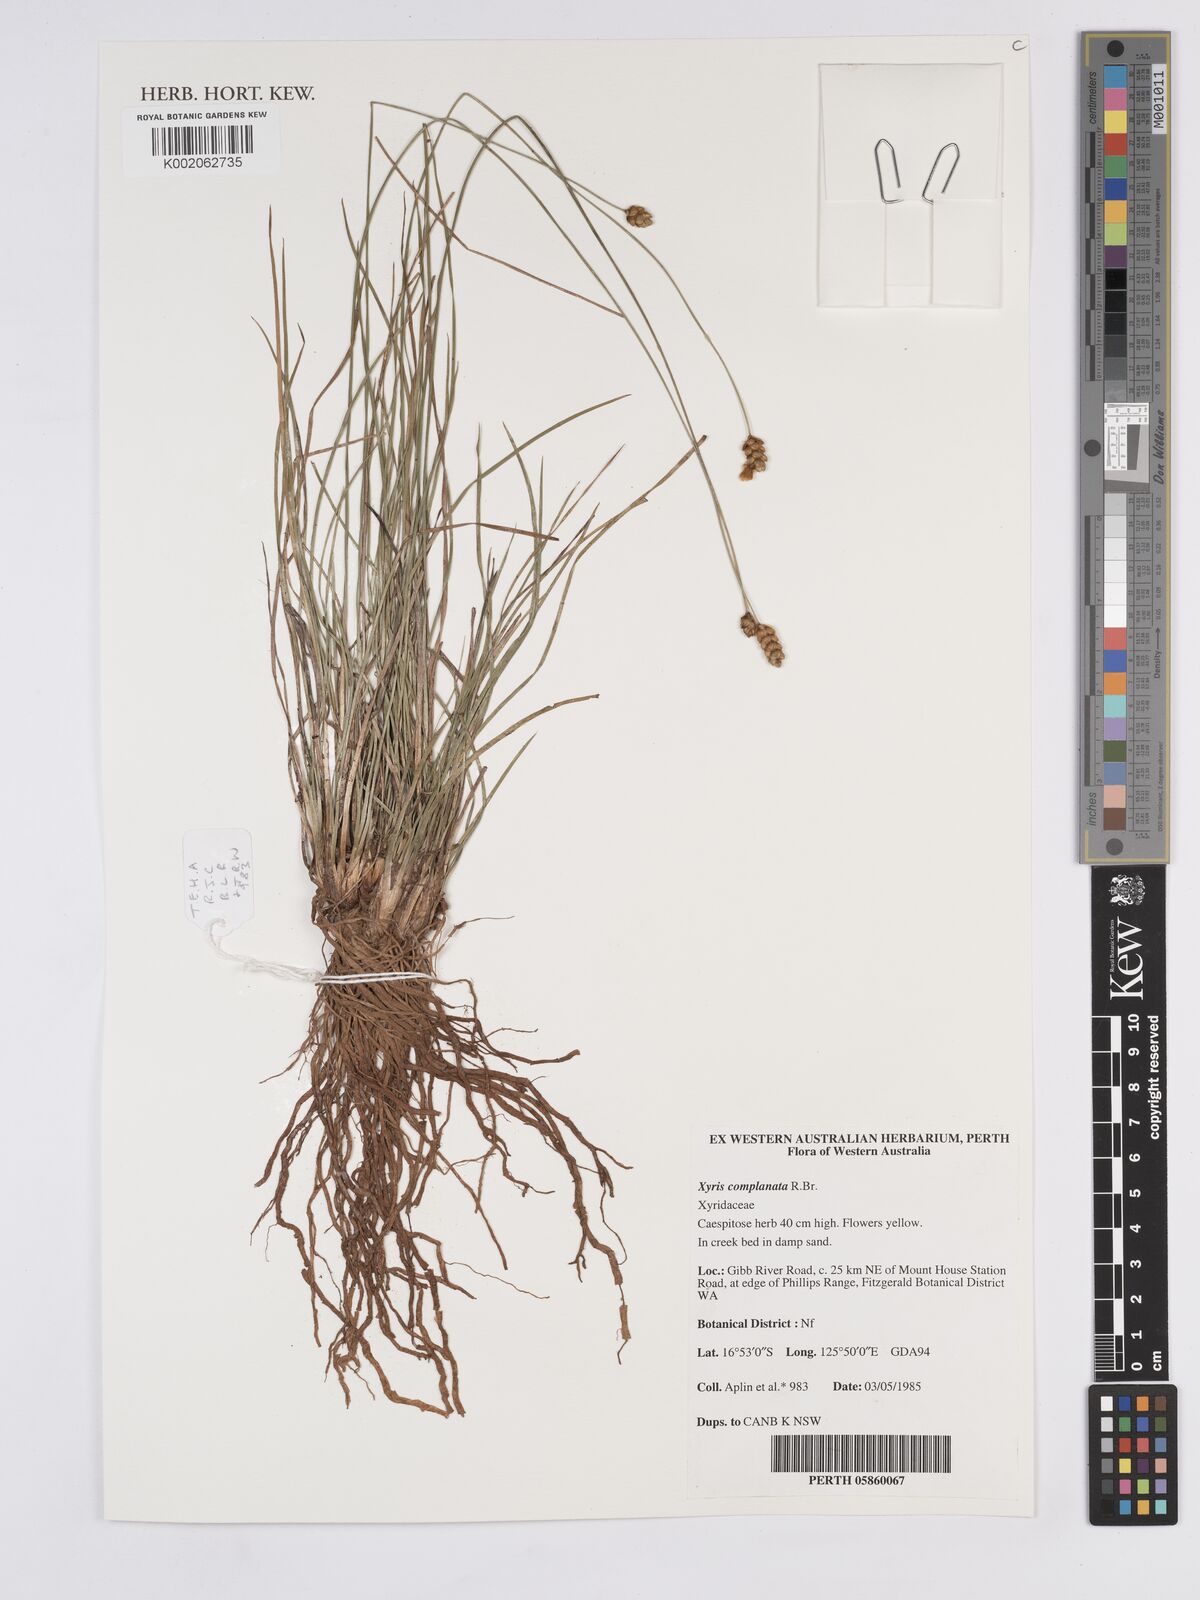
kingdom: Plantae
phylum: Tracheophyta
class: Liliopsida
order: Poales
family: Xyridaceae
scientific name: Xyridaceae
